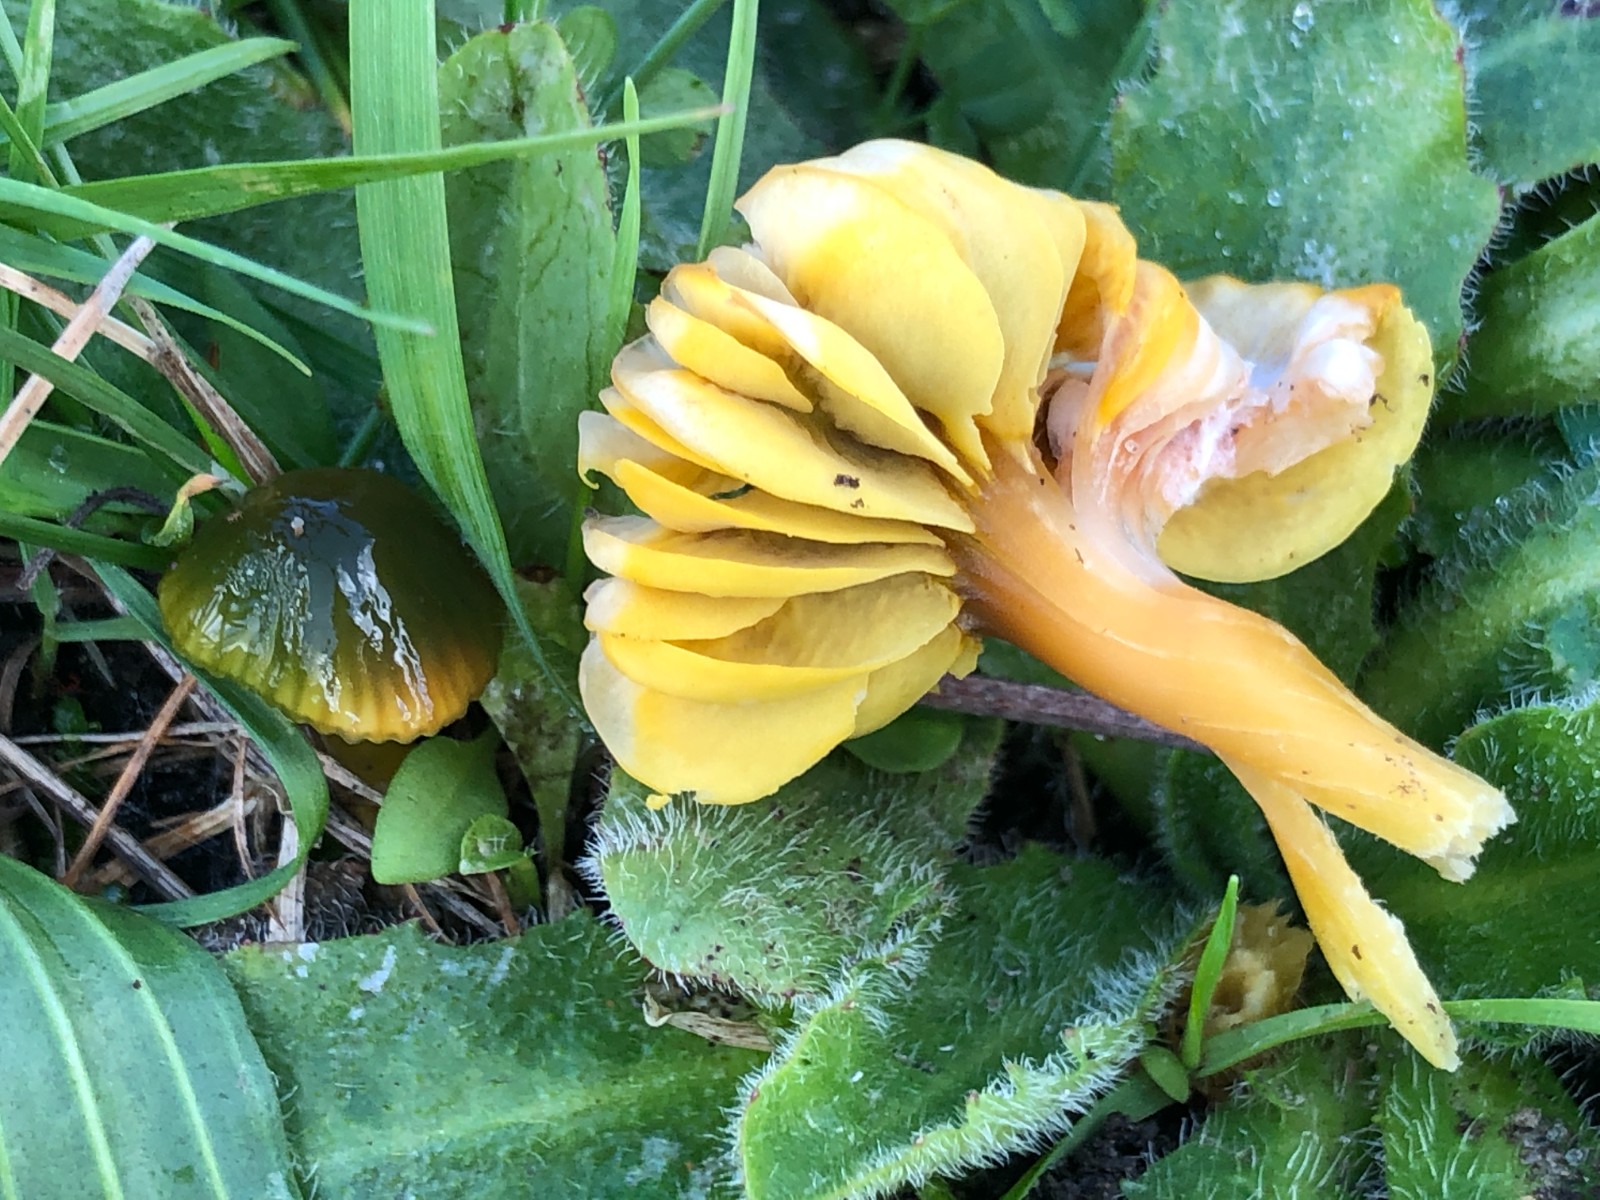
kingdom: Fungi
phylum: Basidiomycota
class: Agaricomycetes
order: Agaricales
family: Hygrophoraceae
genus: Gliophorus
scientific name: Gliophorus psittacinus
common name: papegøje-vokshat
